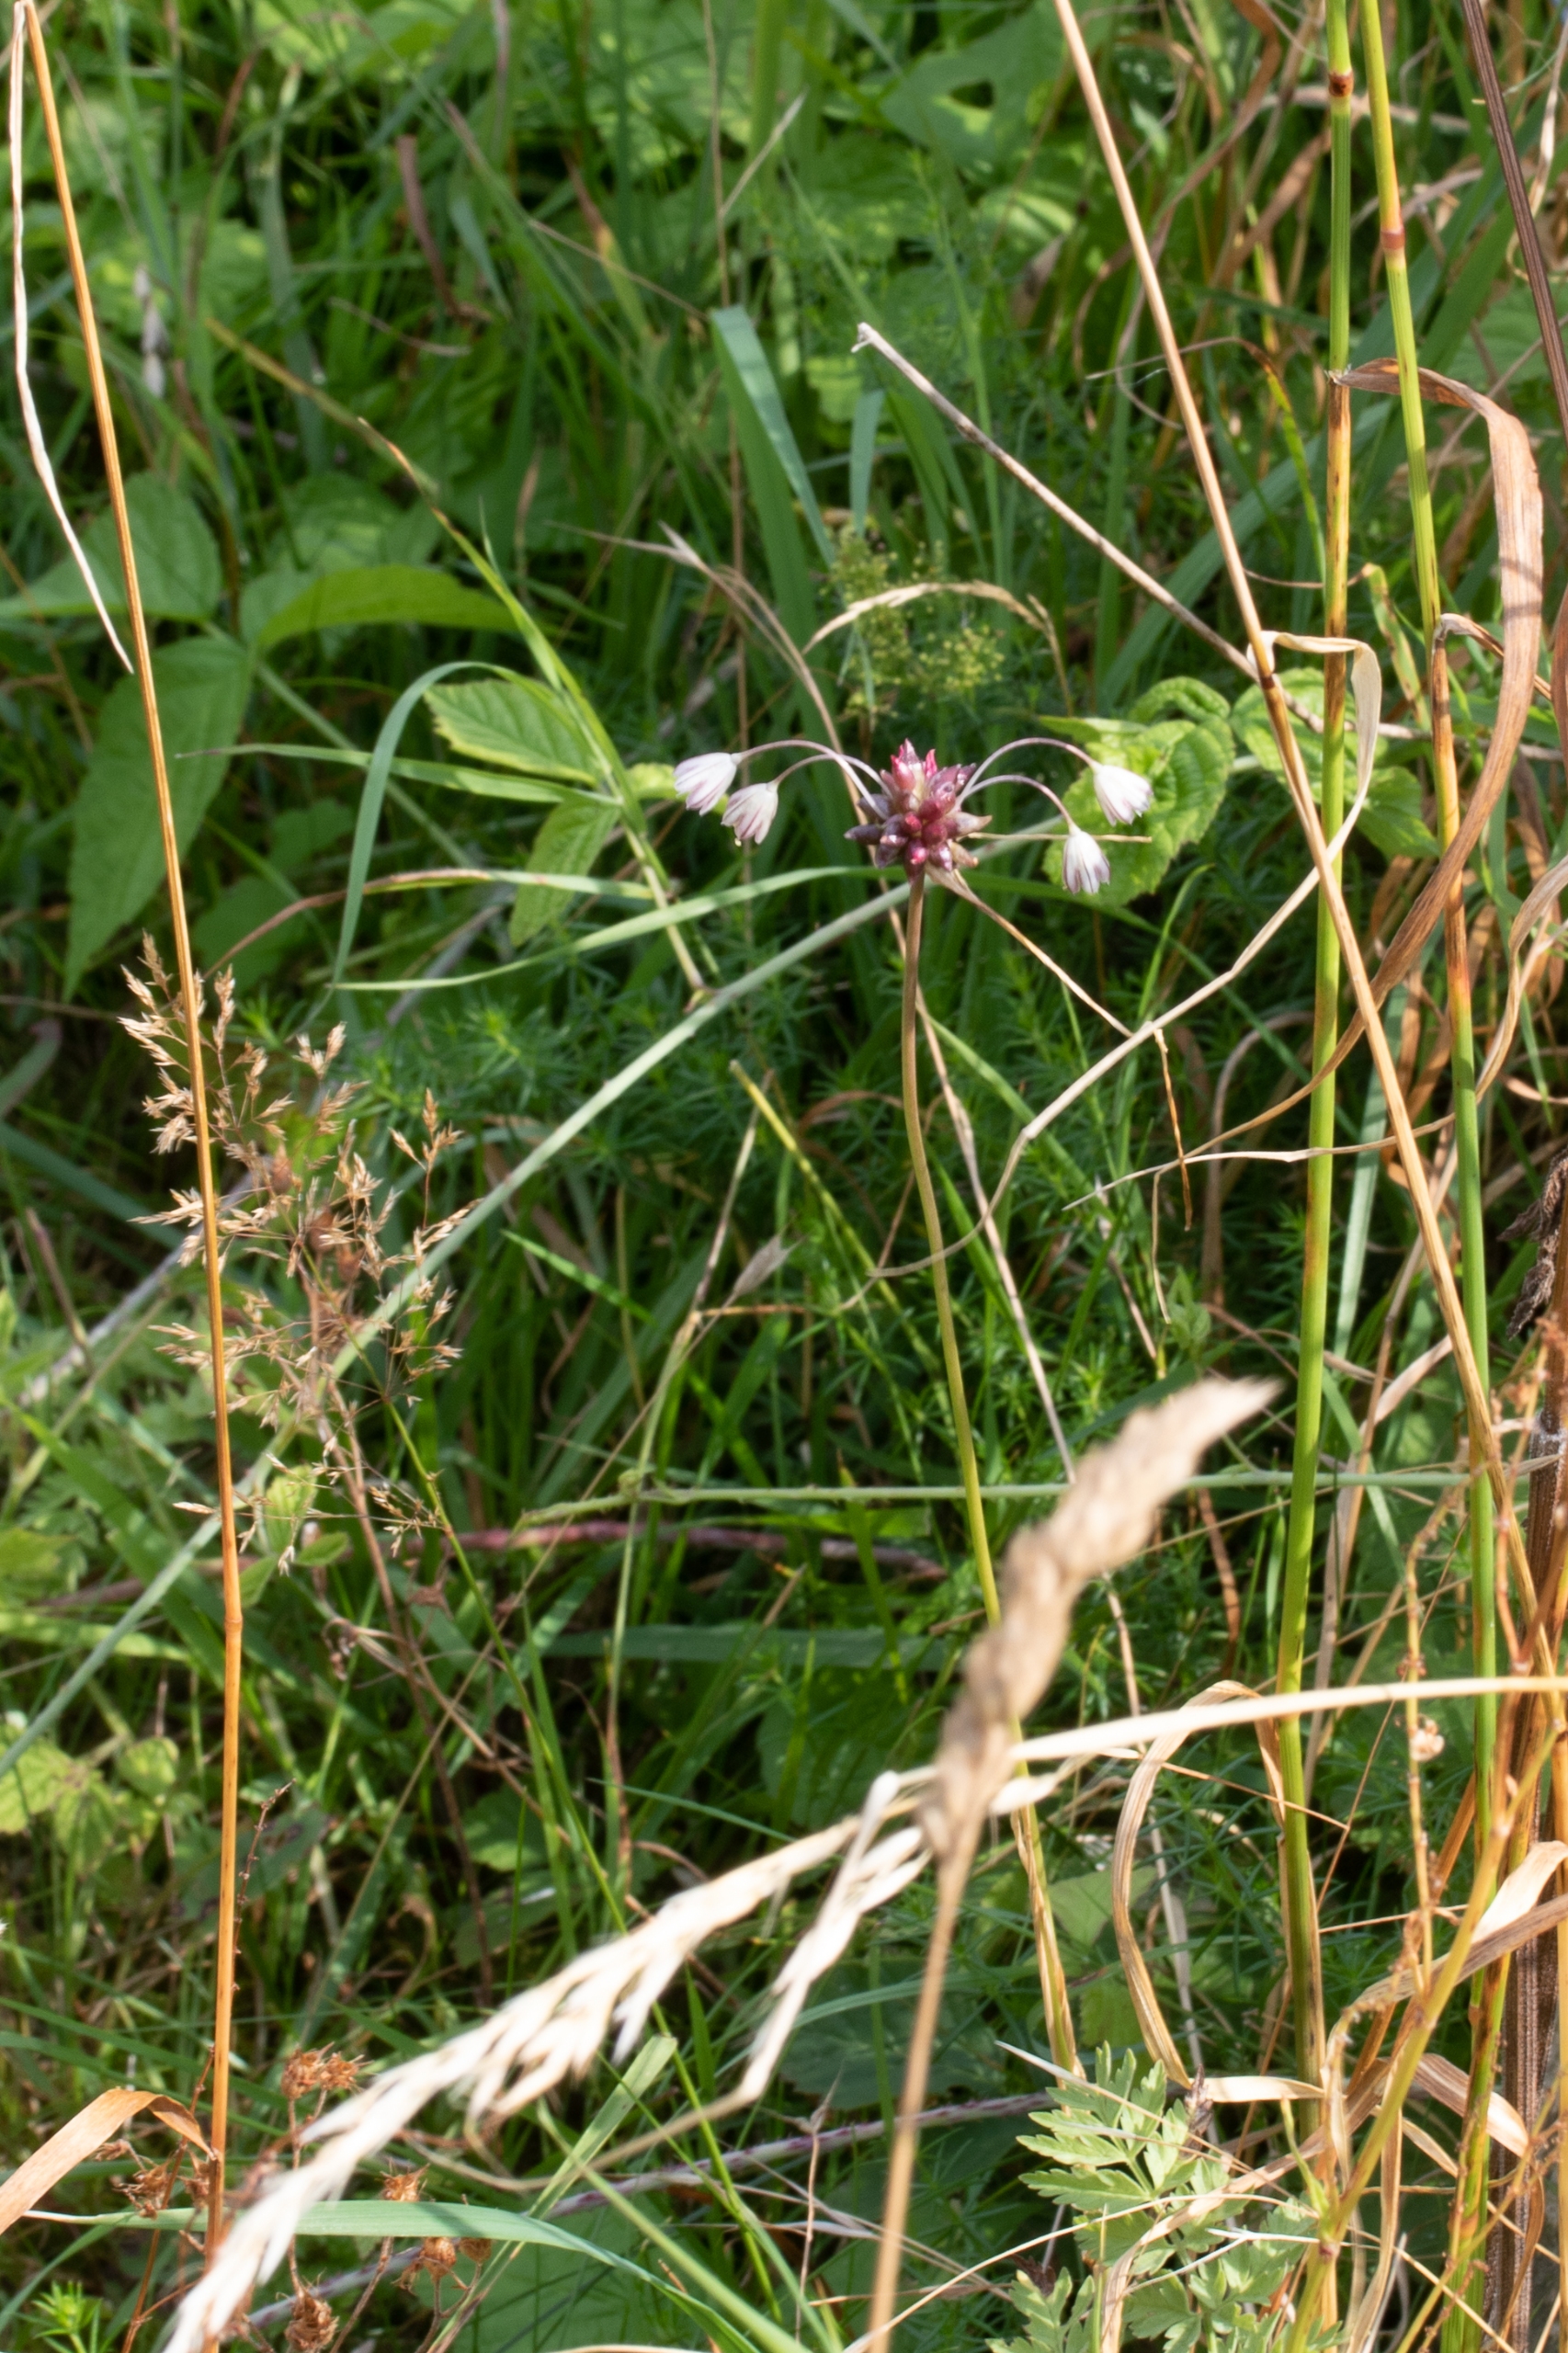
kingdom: Plantae
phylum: Tracheophyta
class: Liliopsida
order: Asparagales
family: Amaryllidaceae
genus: Allium
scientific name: Allium oleraceum
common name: Vild løg
